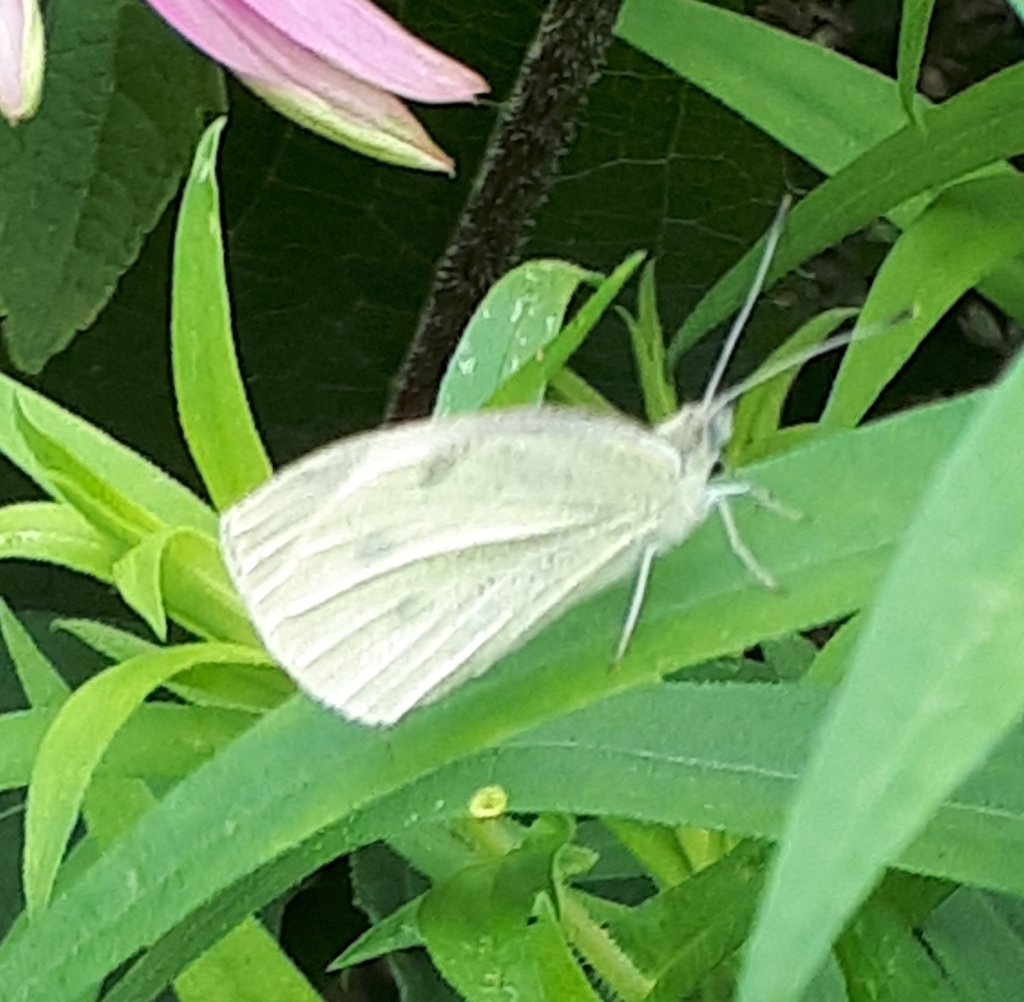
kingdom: Animalia
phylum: Arthropoda
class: Insecta
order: Lepidoptera
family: Pieridae
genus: Pieris
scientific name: Pieris rapae
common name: Cabbage White
